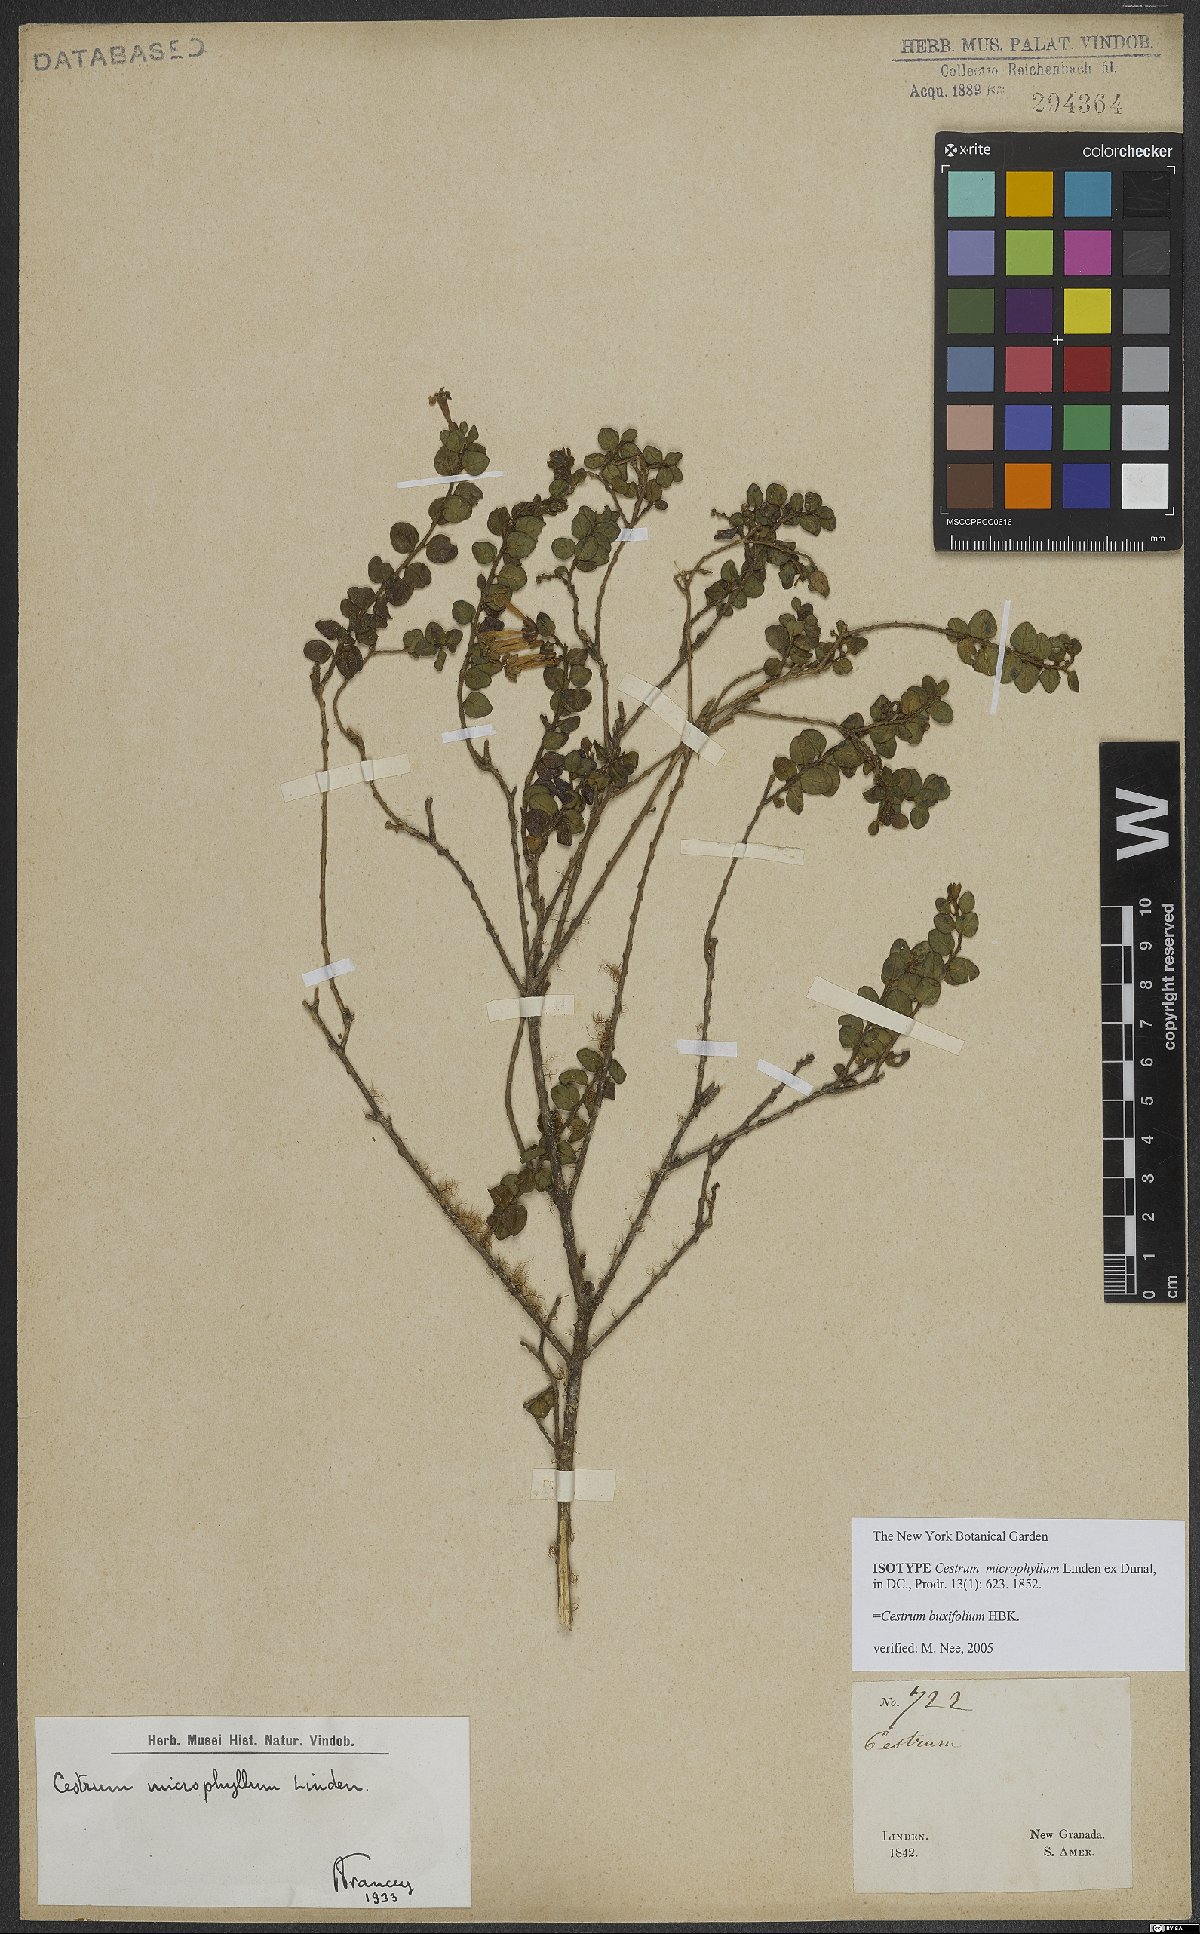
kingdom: Plantae
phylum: Tracheophyta
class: Magnoliopsida
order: Solanales
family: Solanaceae
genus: Cestrum
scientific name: Cestrum buxifolium
